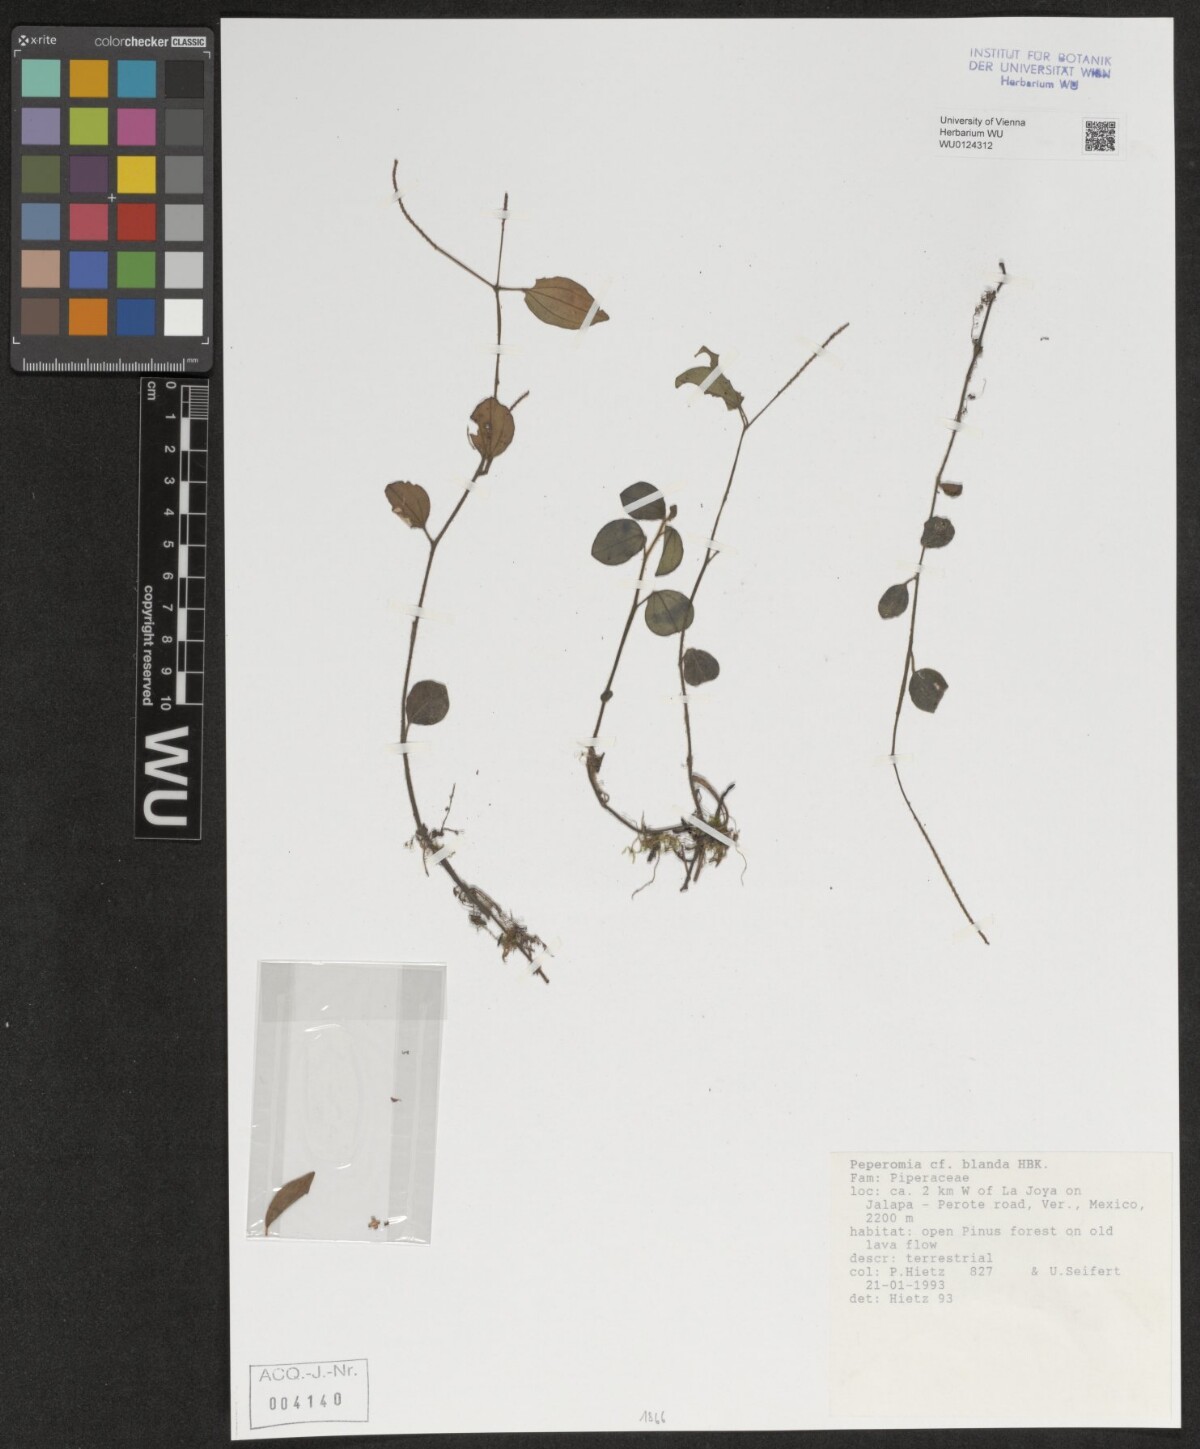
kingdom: Plantae
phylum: Tracheophyta
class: Magnoliopsida
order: Piperales
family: Piperaceae
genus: Peperomia
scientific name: Peperomia blanda
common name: Arid-land peperomia
